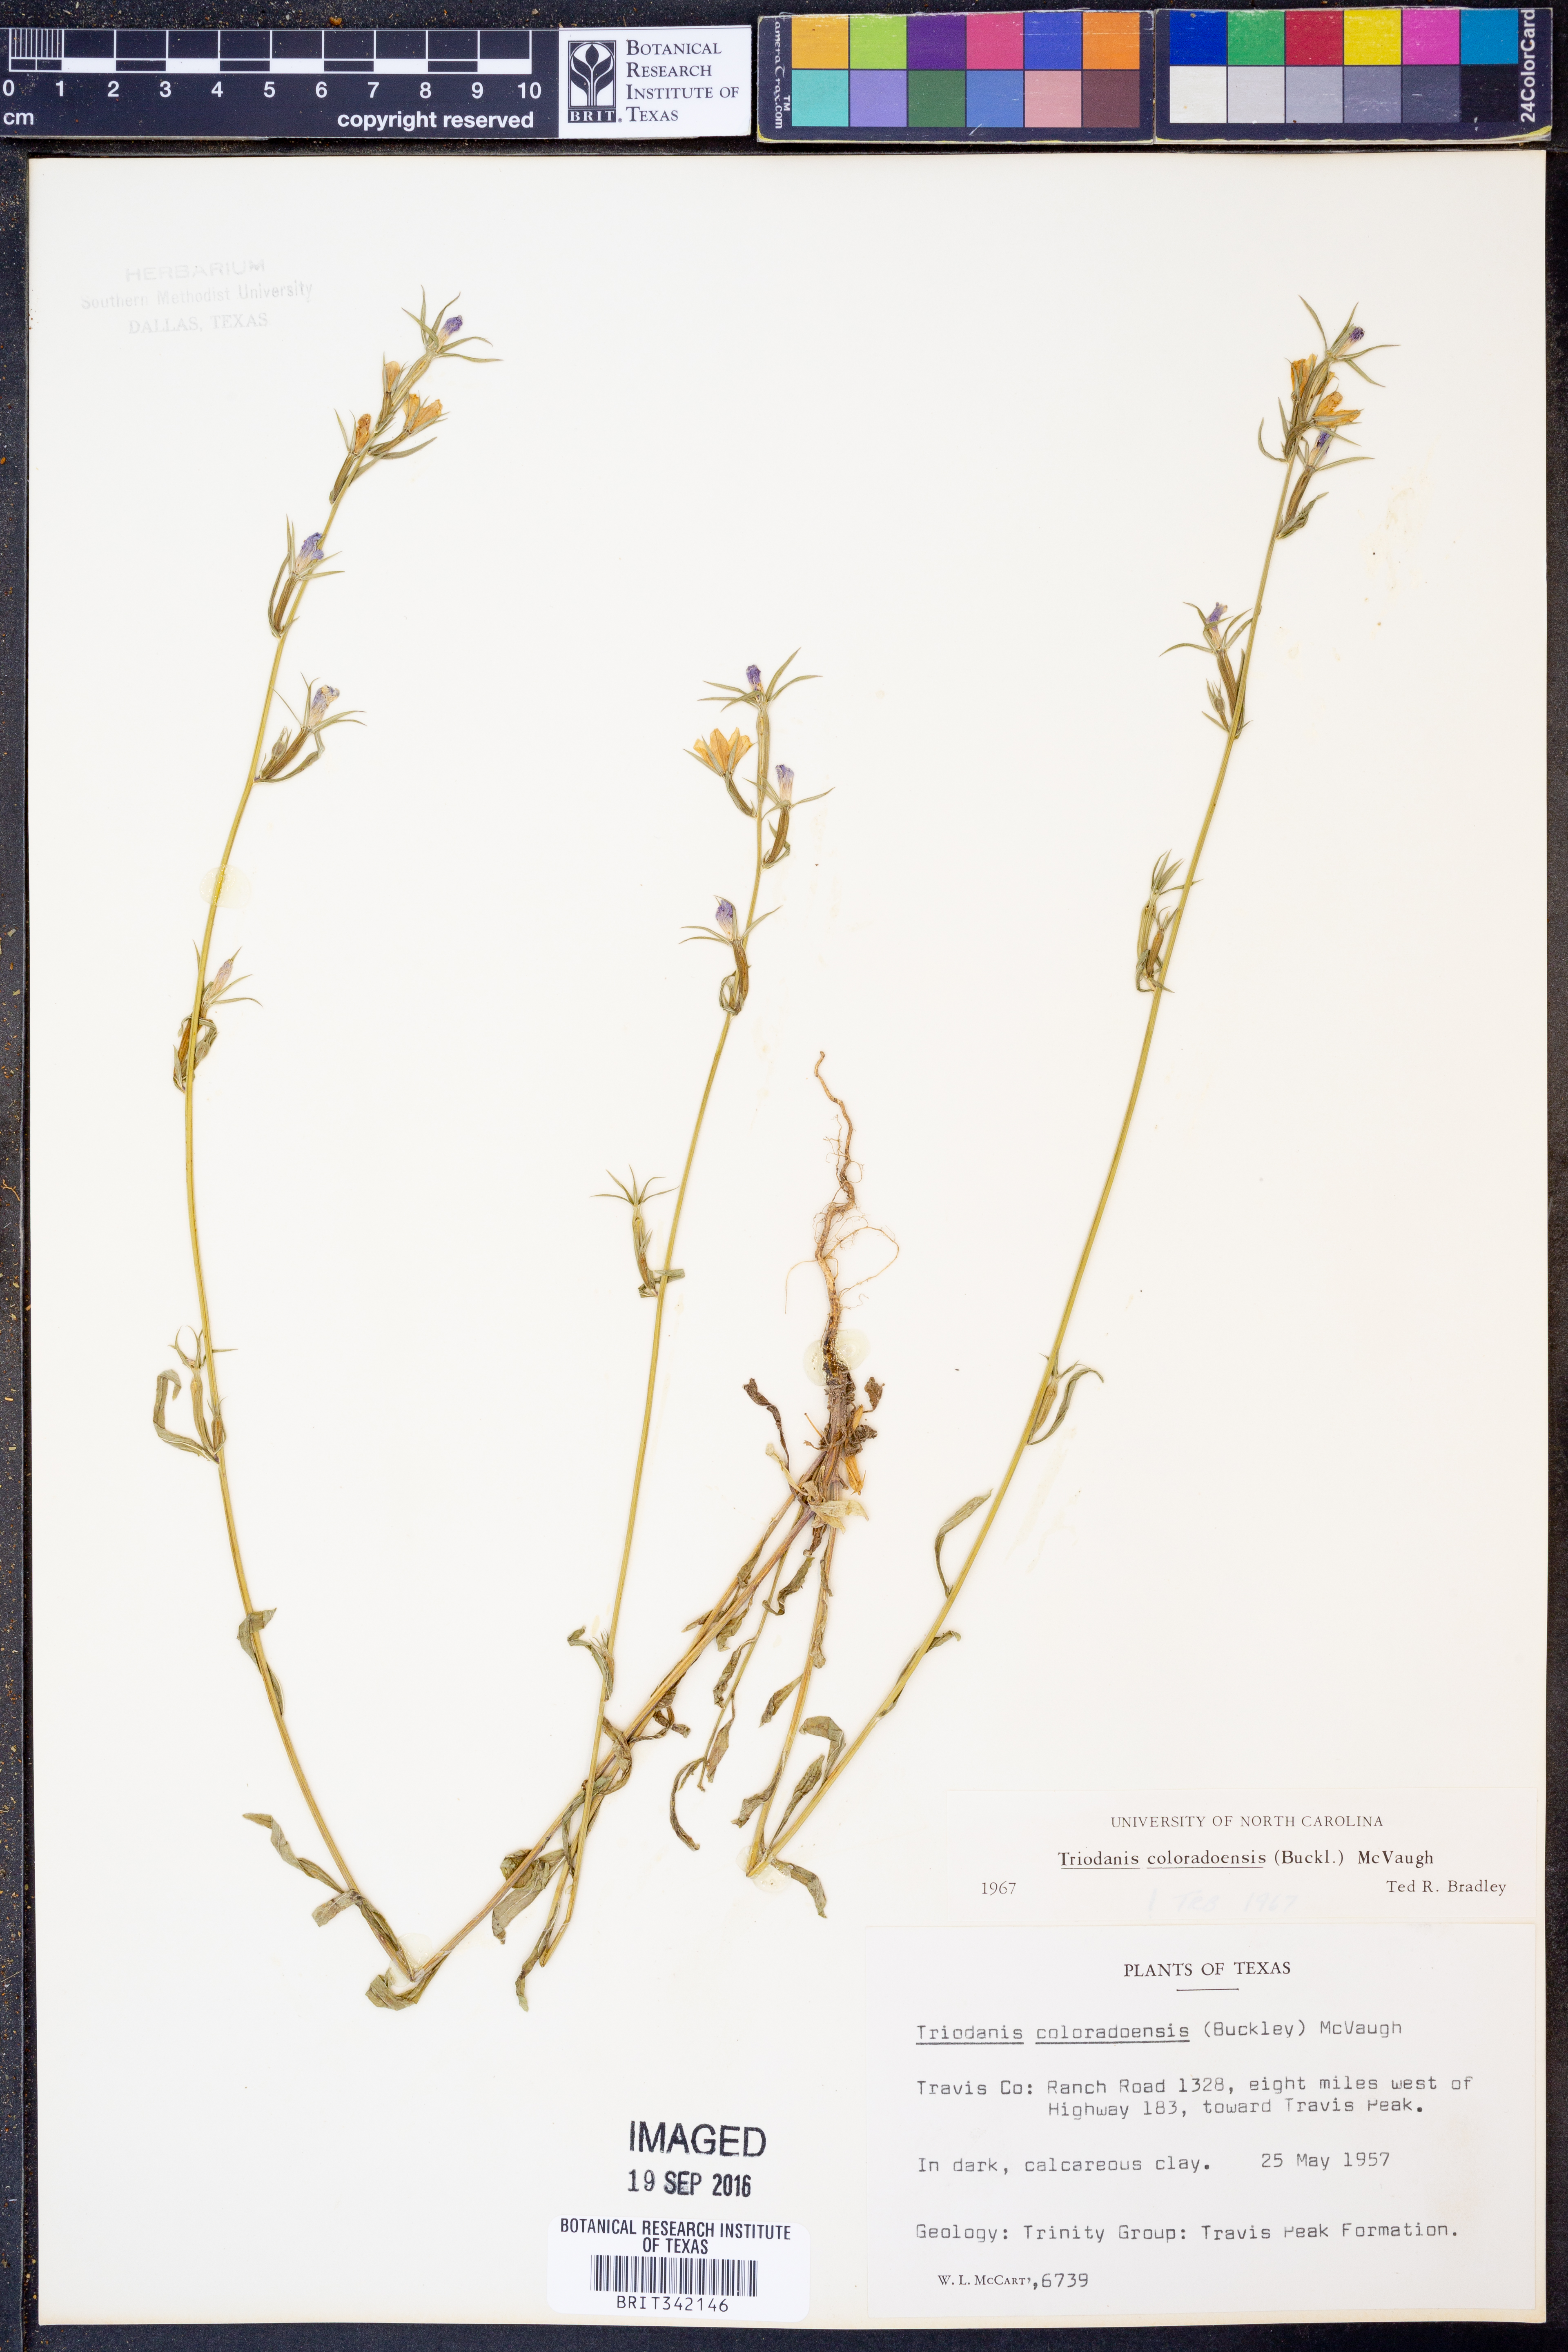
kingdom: Plantae
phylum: Tracheophyta
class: Magnoliopsida
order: Asterales
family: Campanulaceae
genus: Triodanis
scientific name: Triodanis coloradoensis
